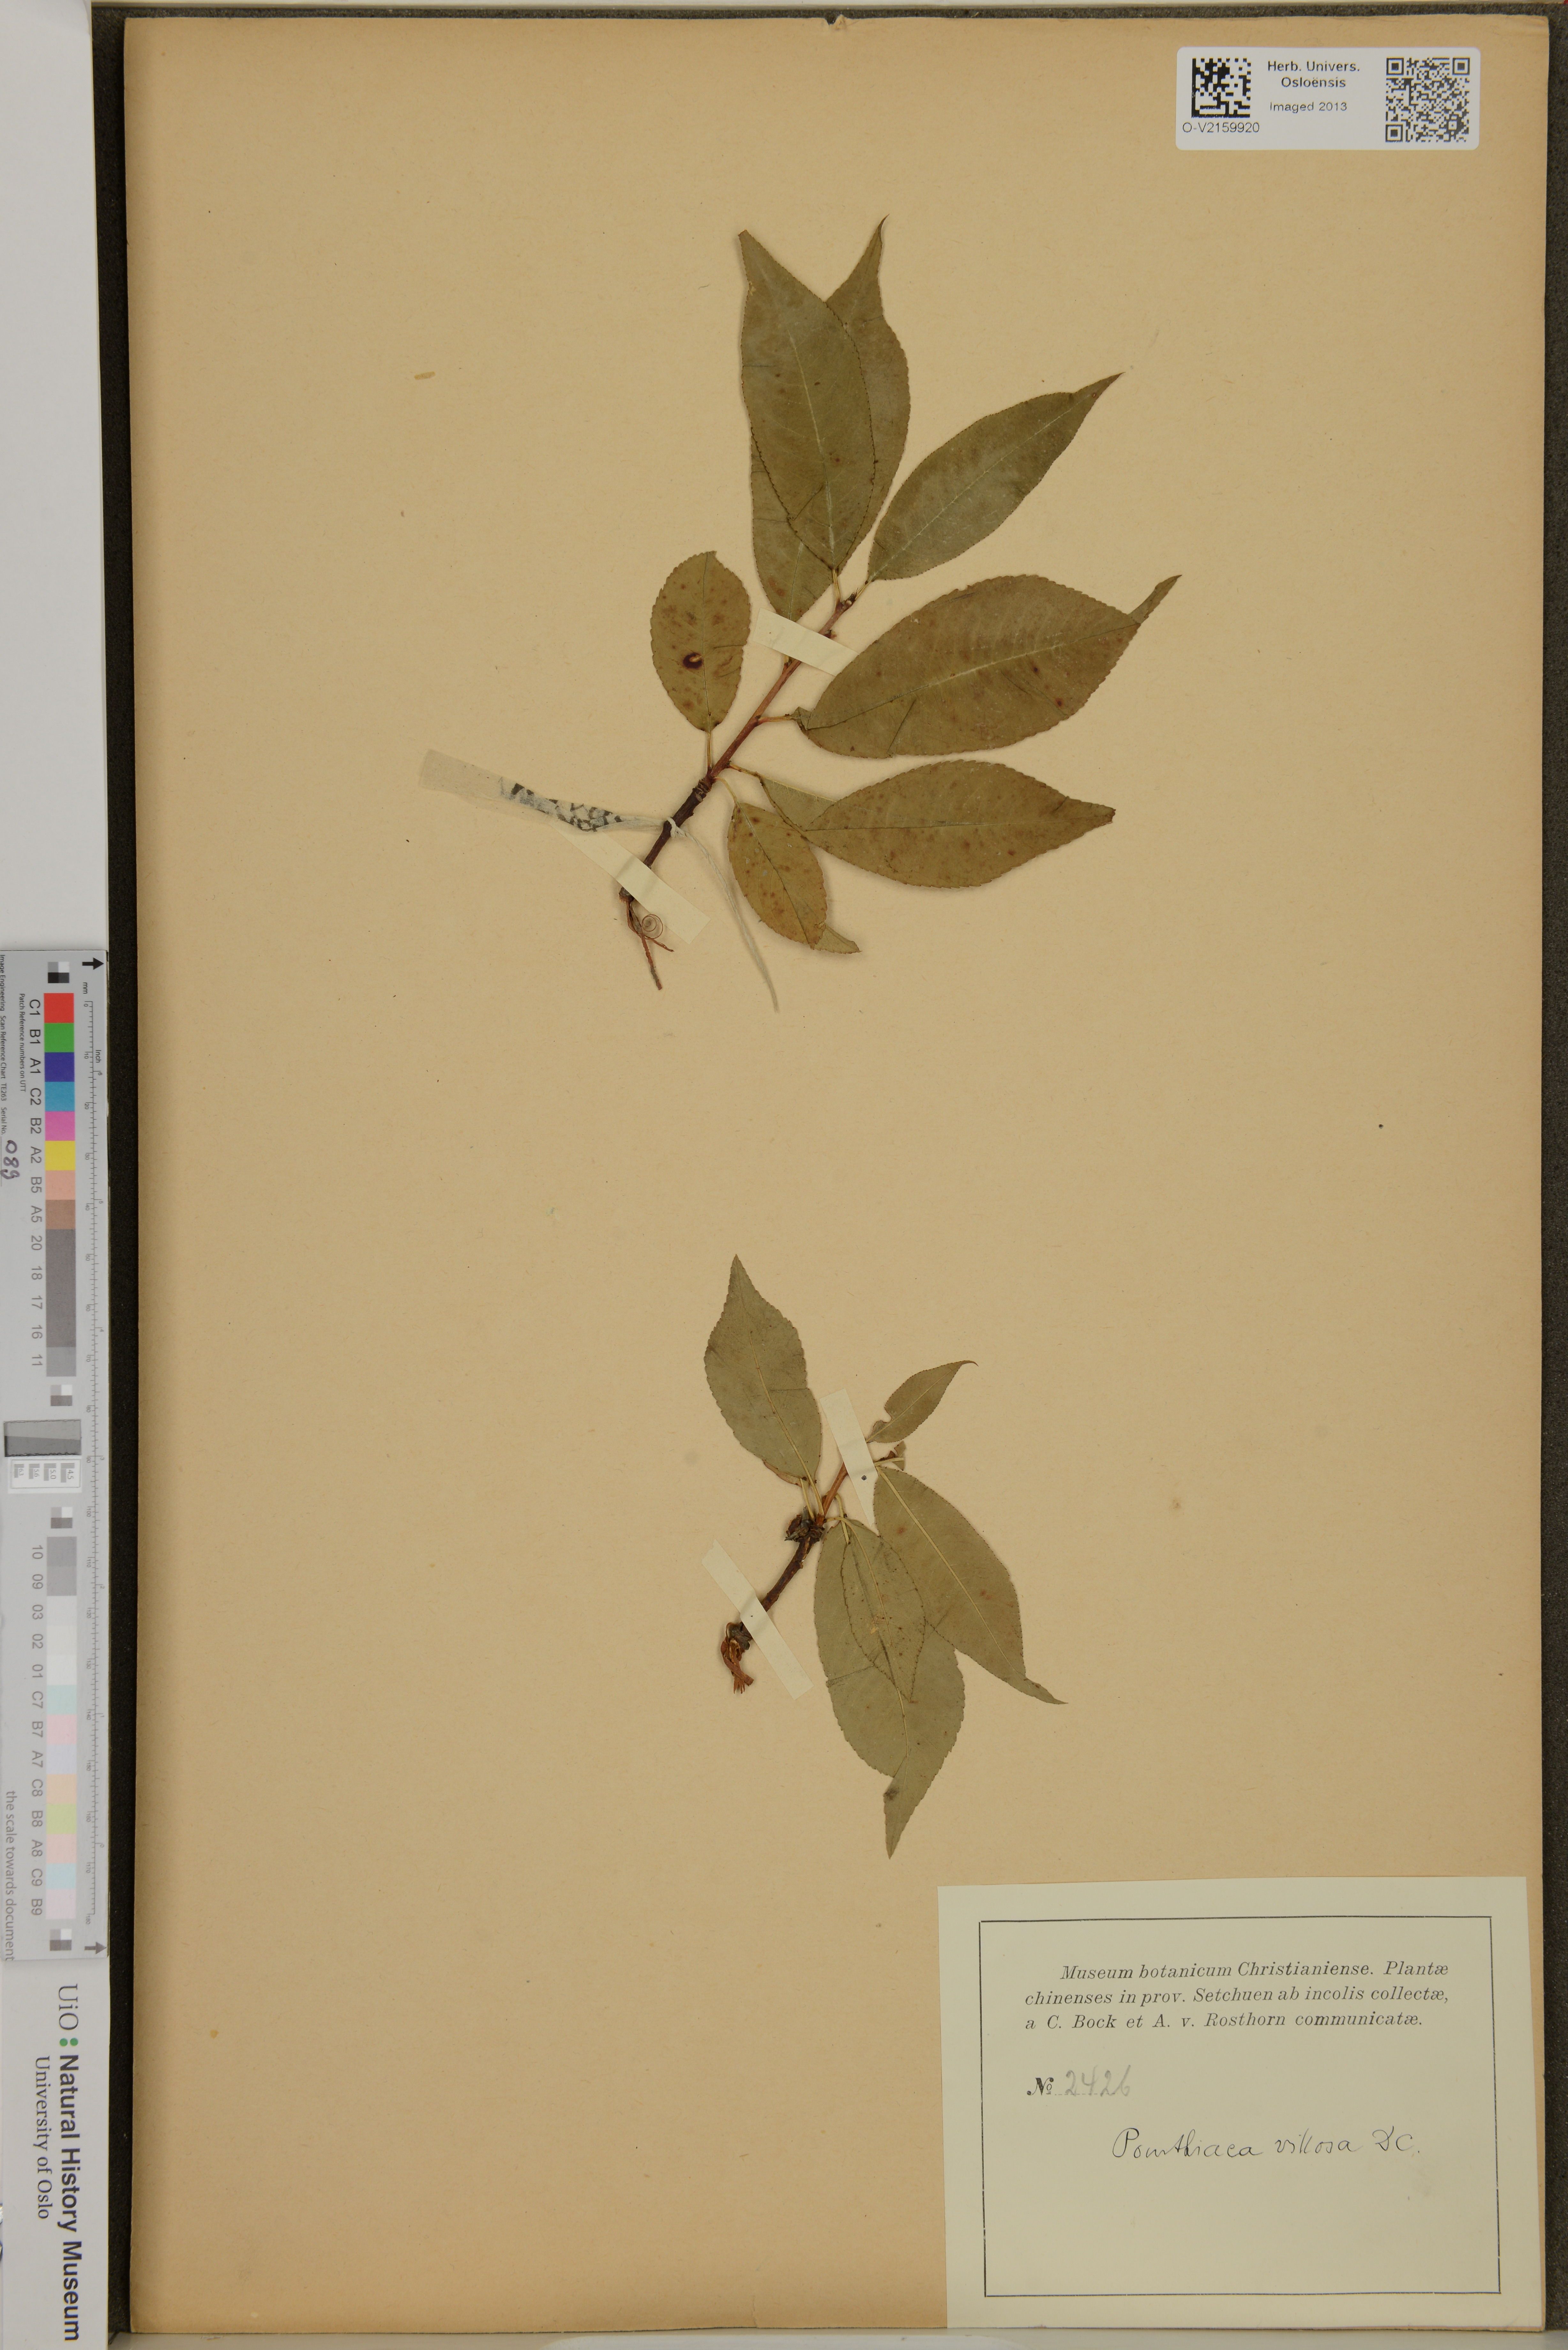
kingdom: Plantae
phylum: Tracheophyta
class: Magnoliopsida
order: Rosales
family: Rosaceae
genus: Pourthiaea
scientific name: Pourthiaea villosa
